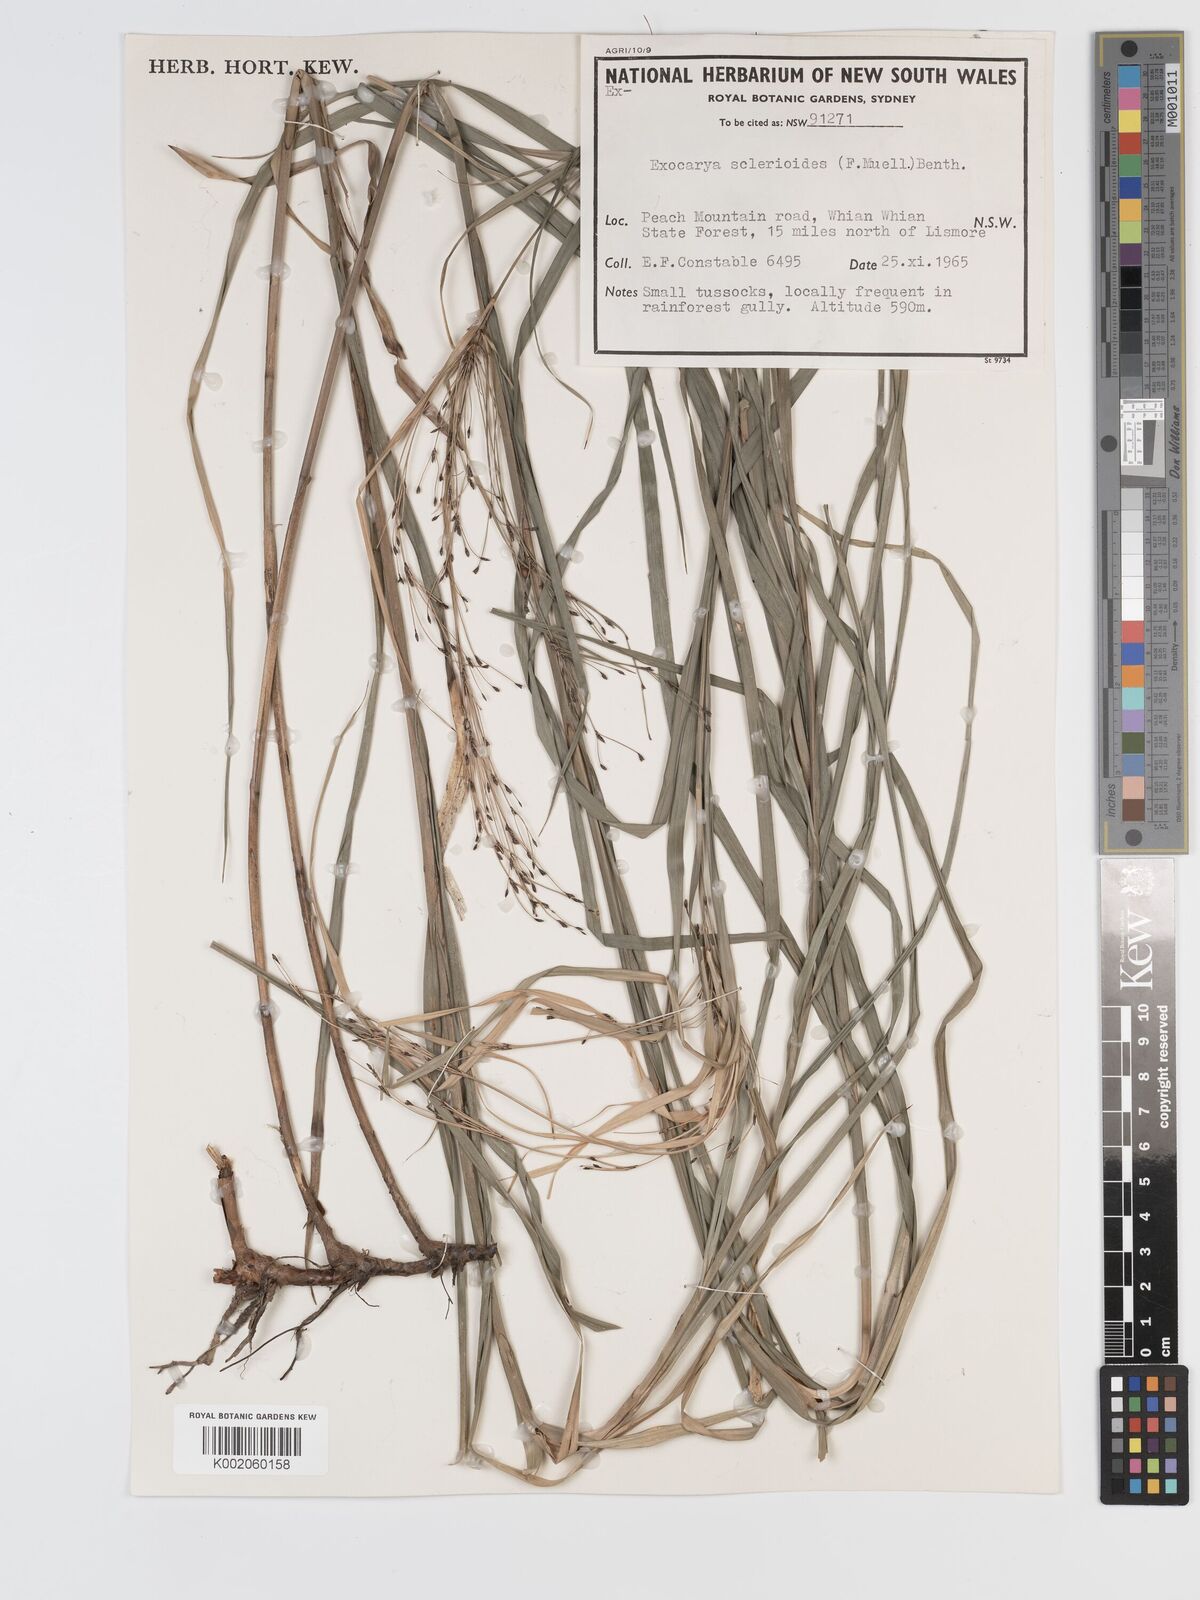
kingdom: Plantae
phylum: Tracheophyta
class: Liliopsida
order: Poales
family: Cyperaceae
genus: Exocarya
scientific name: Exocarya sclerioides
